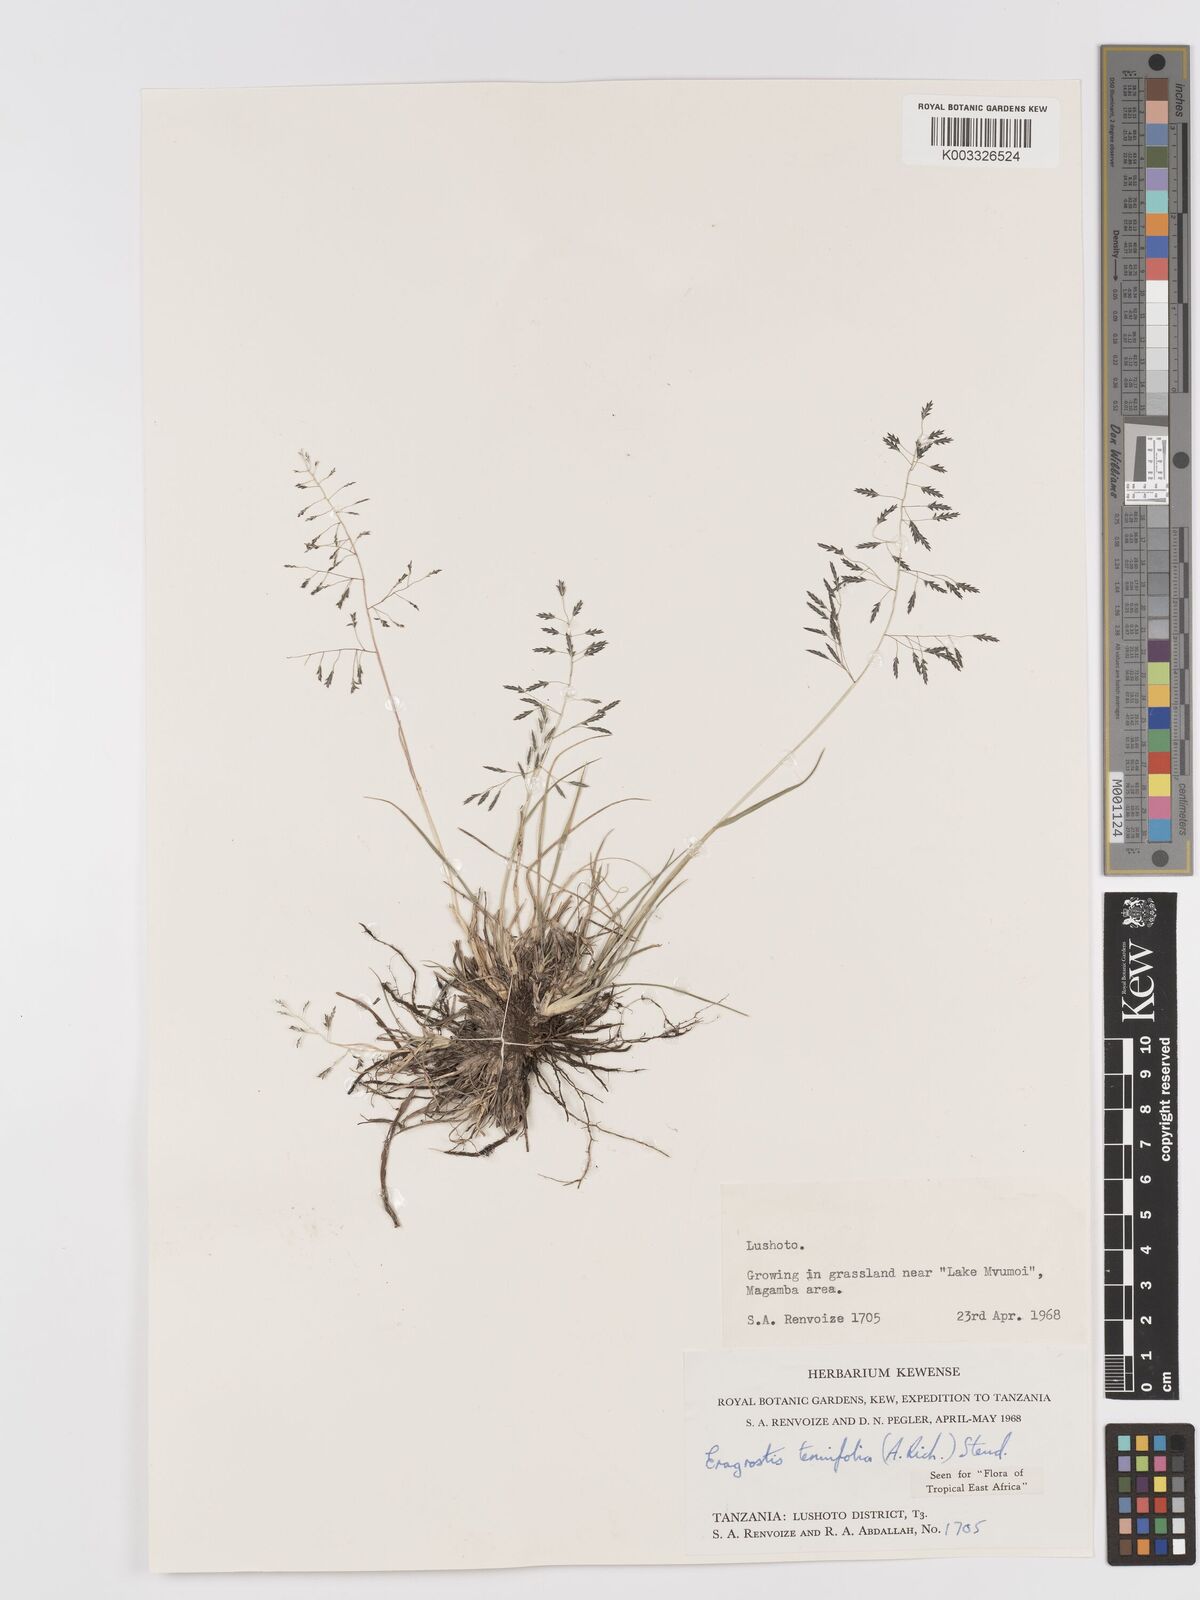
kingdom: Plantae
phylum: Tracheophyta
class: Liliopsida
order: Poales
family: Poaceae
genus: Eragrostis
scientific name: Eragrostis tenuifolia
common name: Elastic grass
